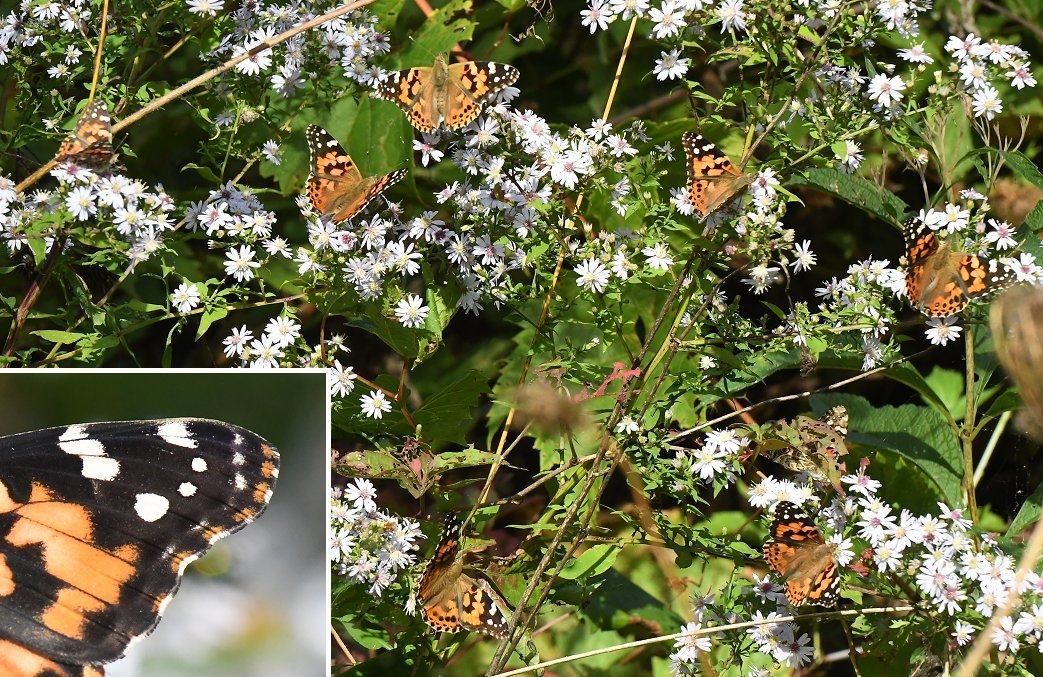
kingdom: Animalia
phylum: Arthropoda
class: Insecta
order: Lepidoptera
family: Nymphalidae
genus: Vanessa
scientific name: Vanessa cardui
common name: Painted Lady
